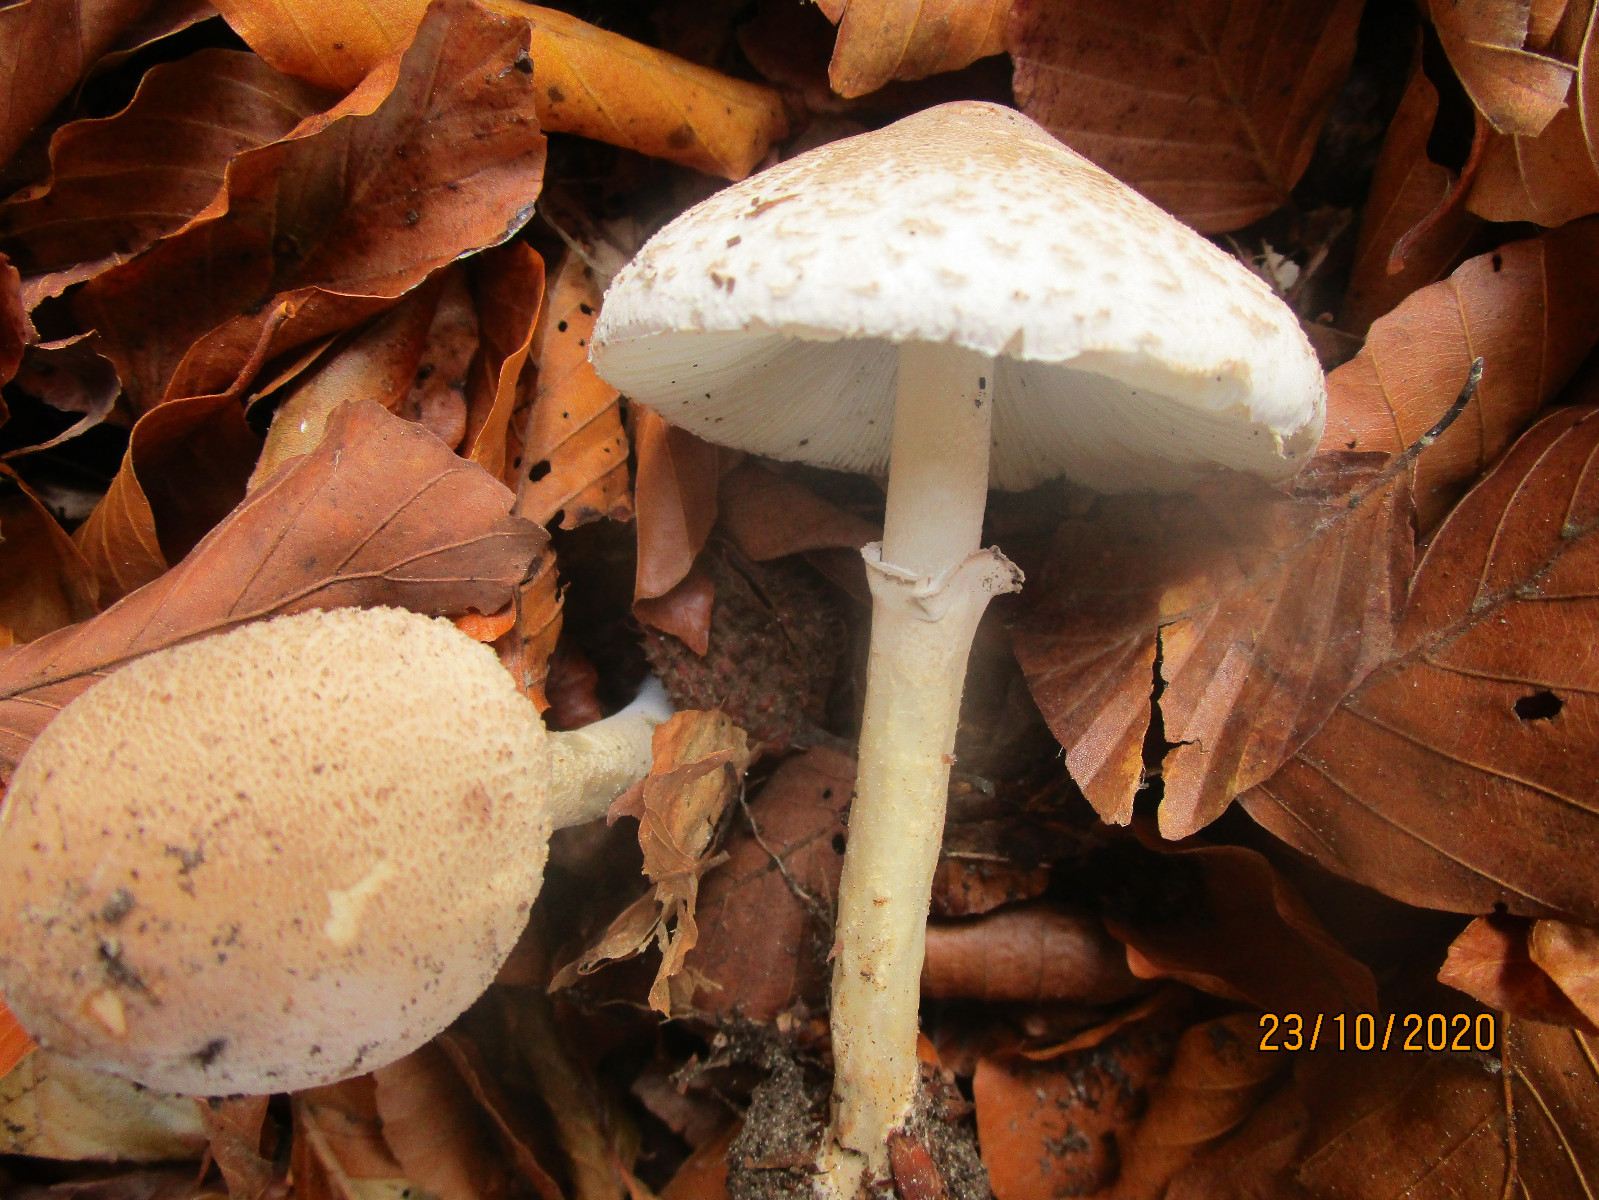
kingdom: Fungi
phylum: Basidiomycota
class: Agaricomycetes
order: Agaricales
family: Agaricaceae
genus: Macrolepiota
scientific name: Macrolepiota mastoidea
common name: puklet kæmpeparasolhat
